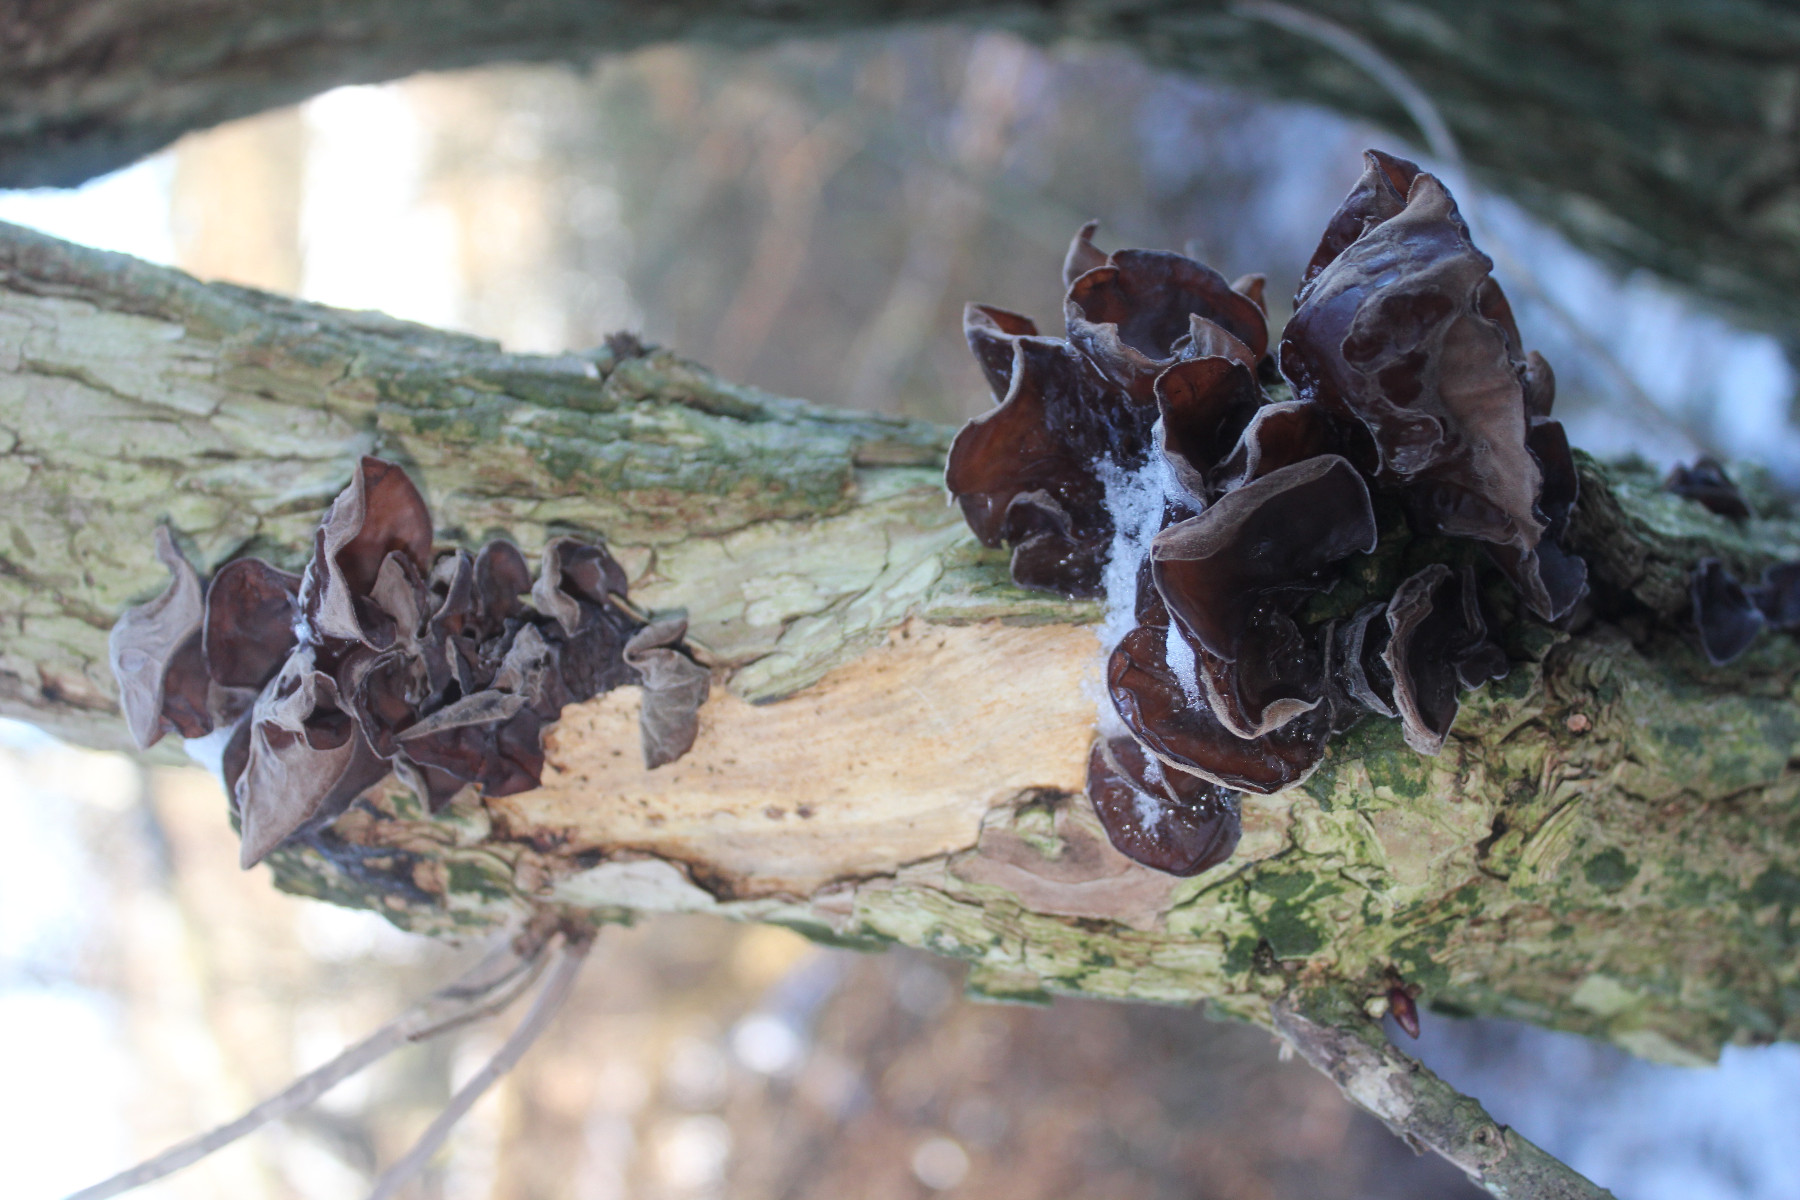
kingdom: Fungi
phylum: Basidiomycota
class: Agaricomycetes
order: Auriculariales
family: Auriculariaceae
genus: Auricularia
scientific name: Auricularia auricula-judae
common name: almindelig judasøre
